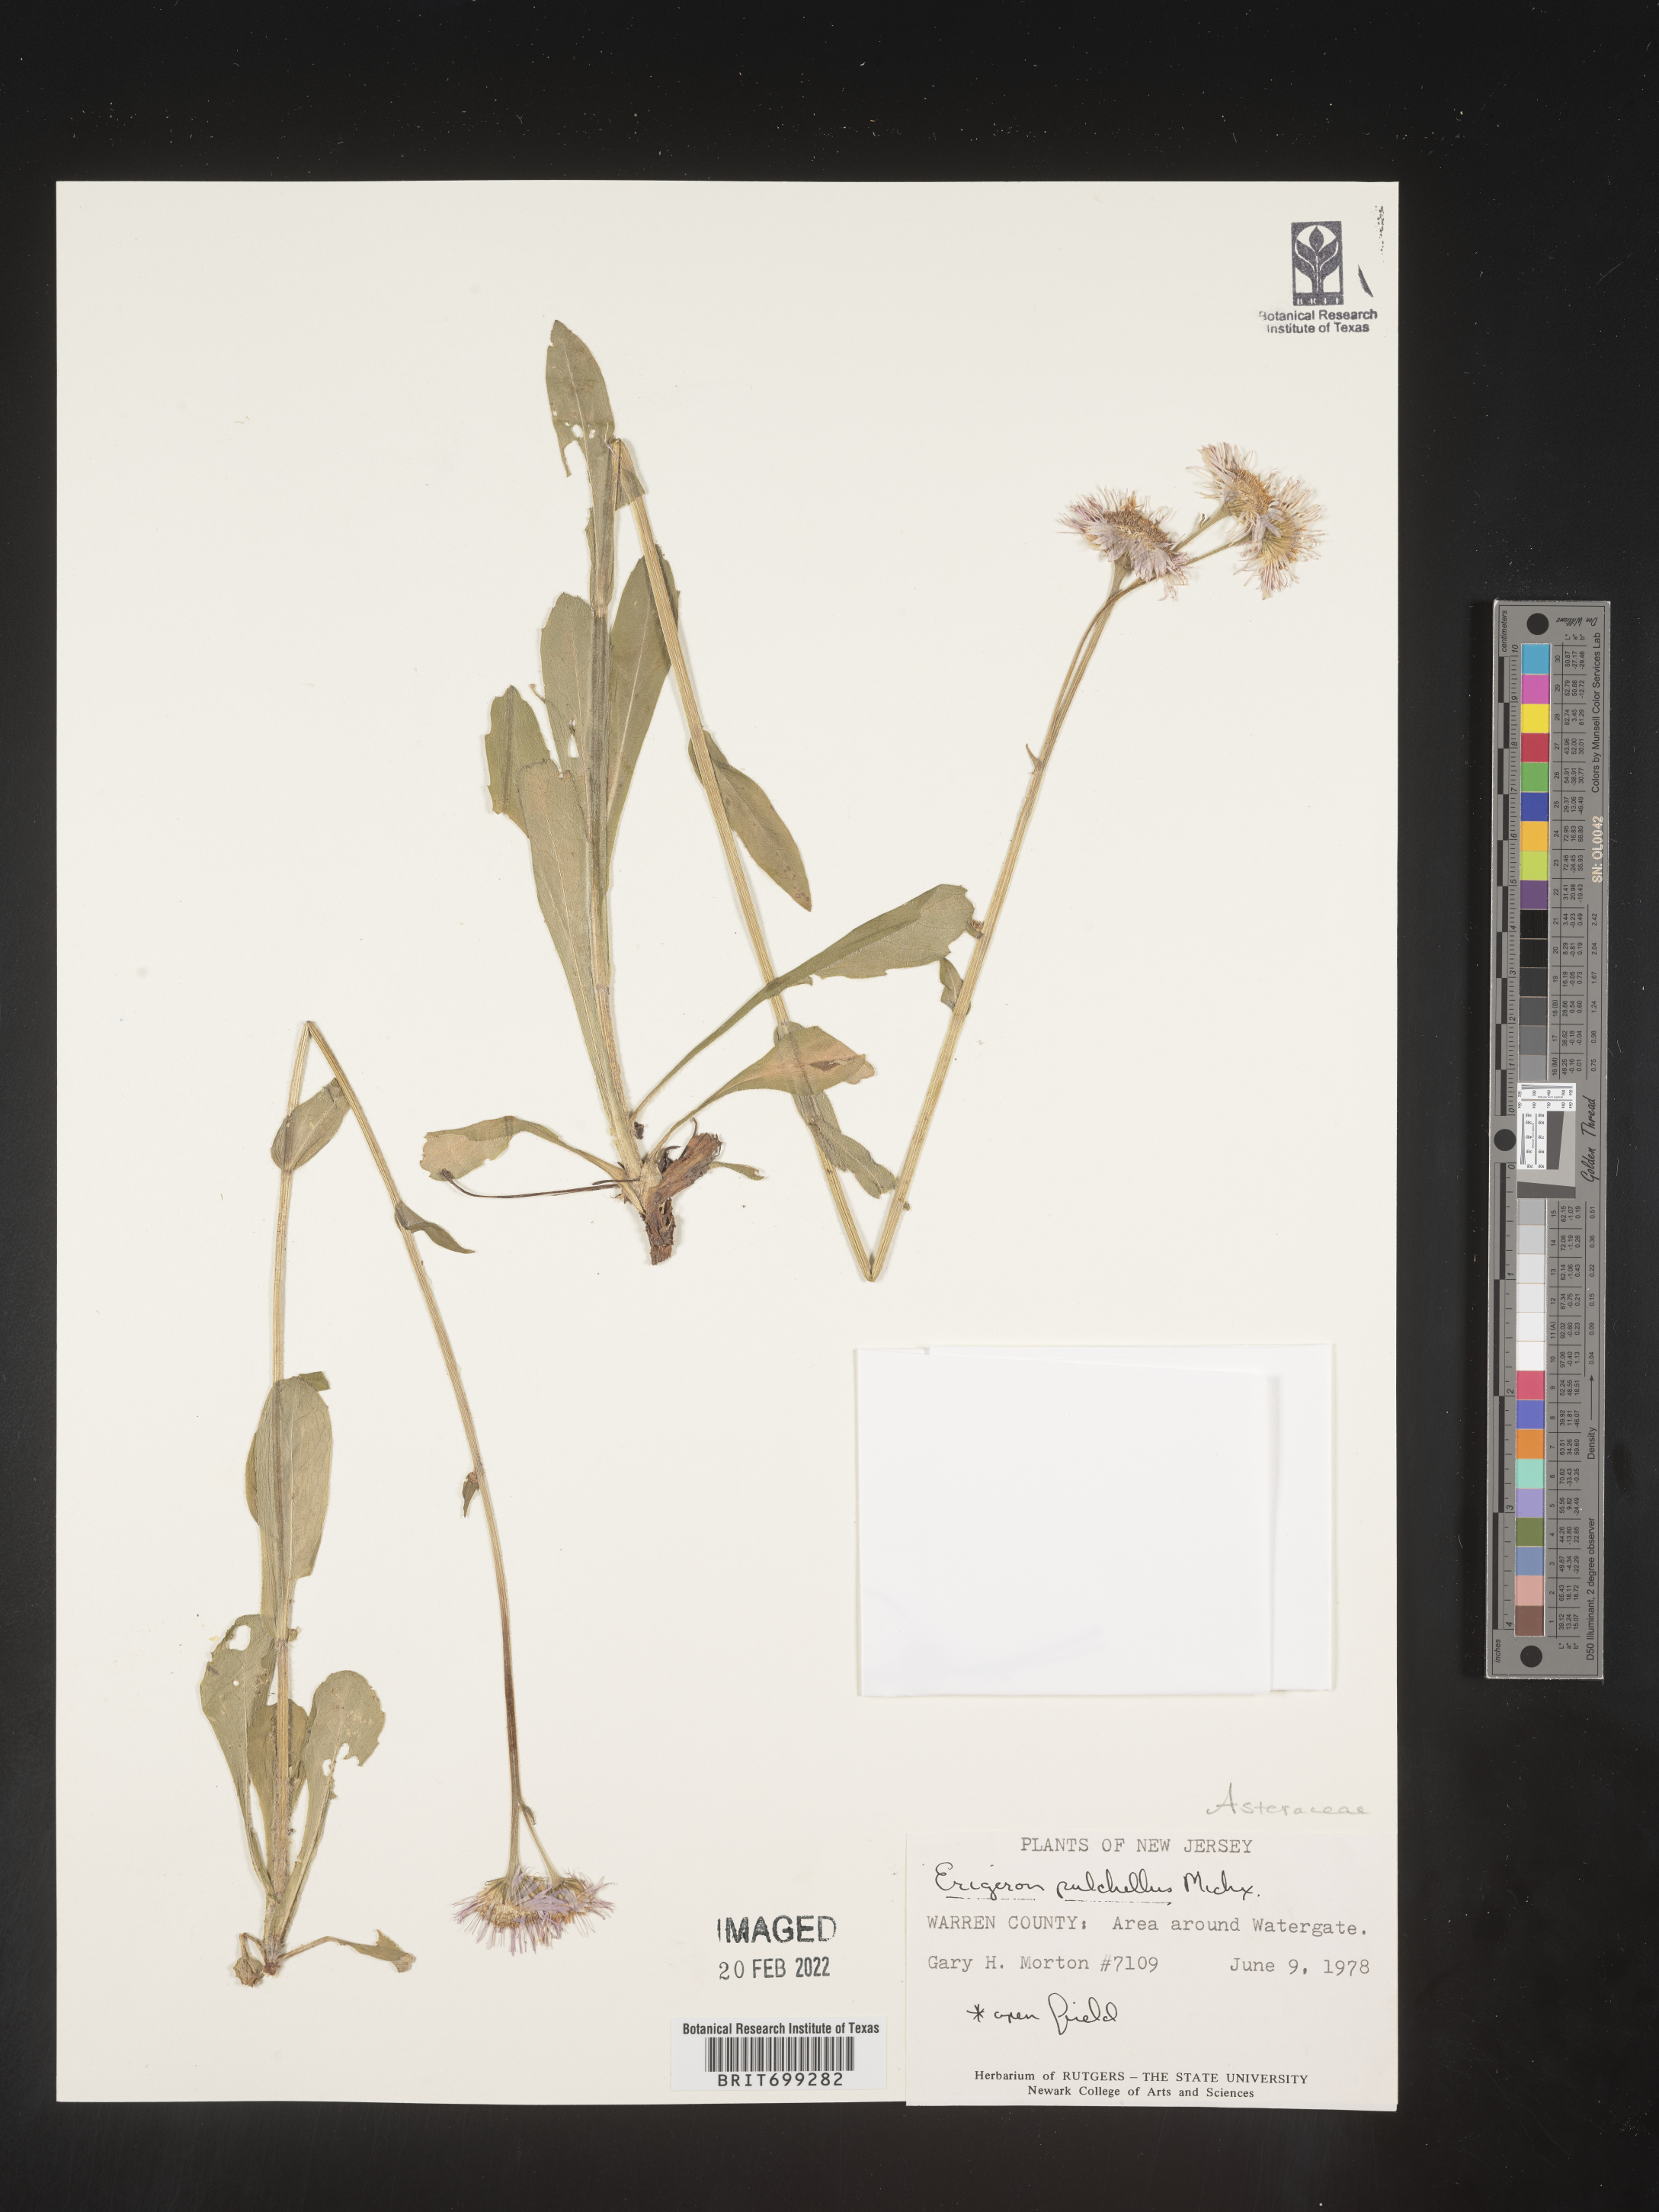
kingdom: Plantae
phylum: Tracheophyta
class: Magnoliopsida
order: Asterales
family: Asteraceae
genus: Erigeron
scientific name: Erigeron pulchellus
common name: Hairy fleabane
